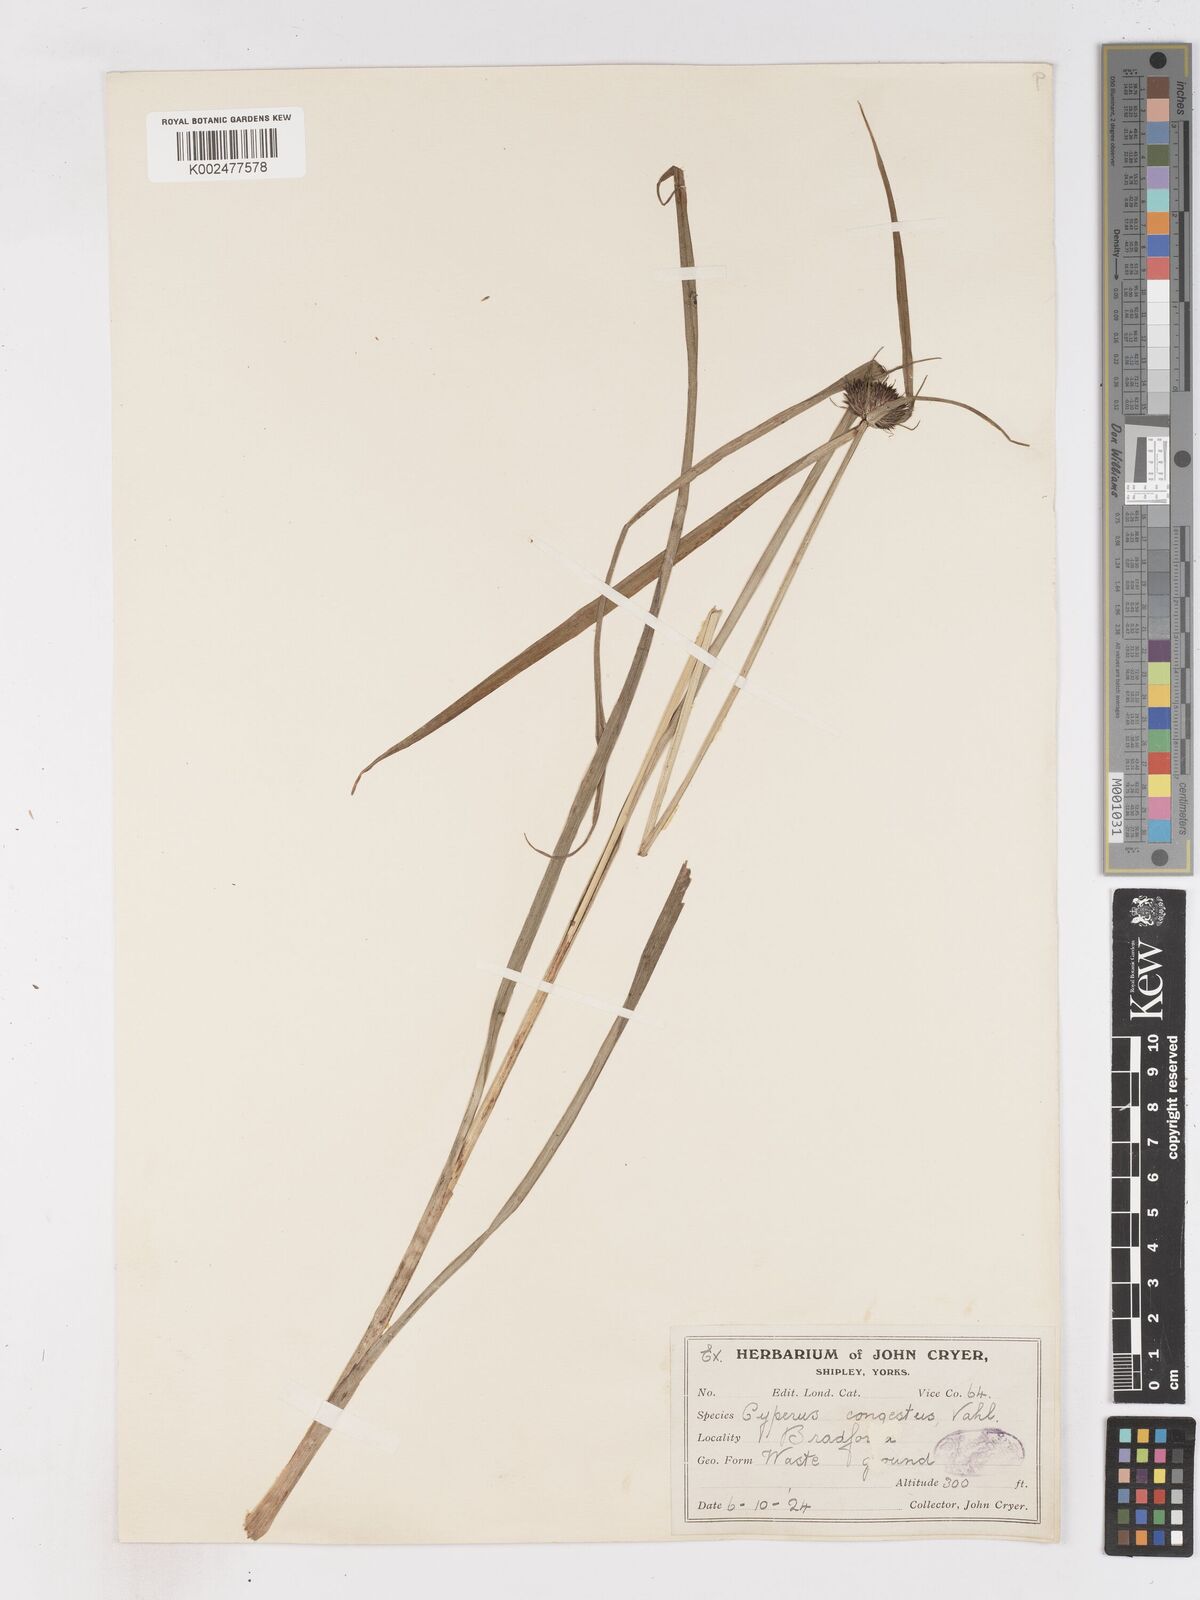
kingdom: Plantae
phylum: Tracheophyta
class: Liliopsida
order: Poales
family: Cyperaceae
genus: Cyperus
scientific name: Cyperus congestus
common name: Dense flat sedge
